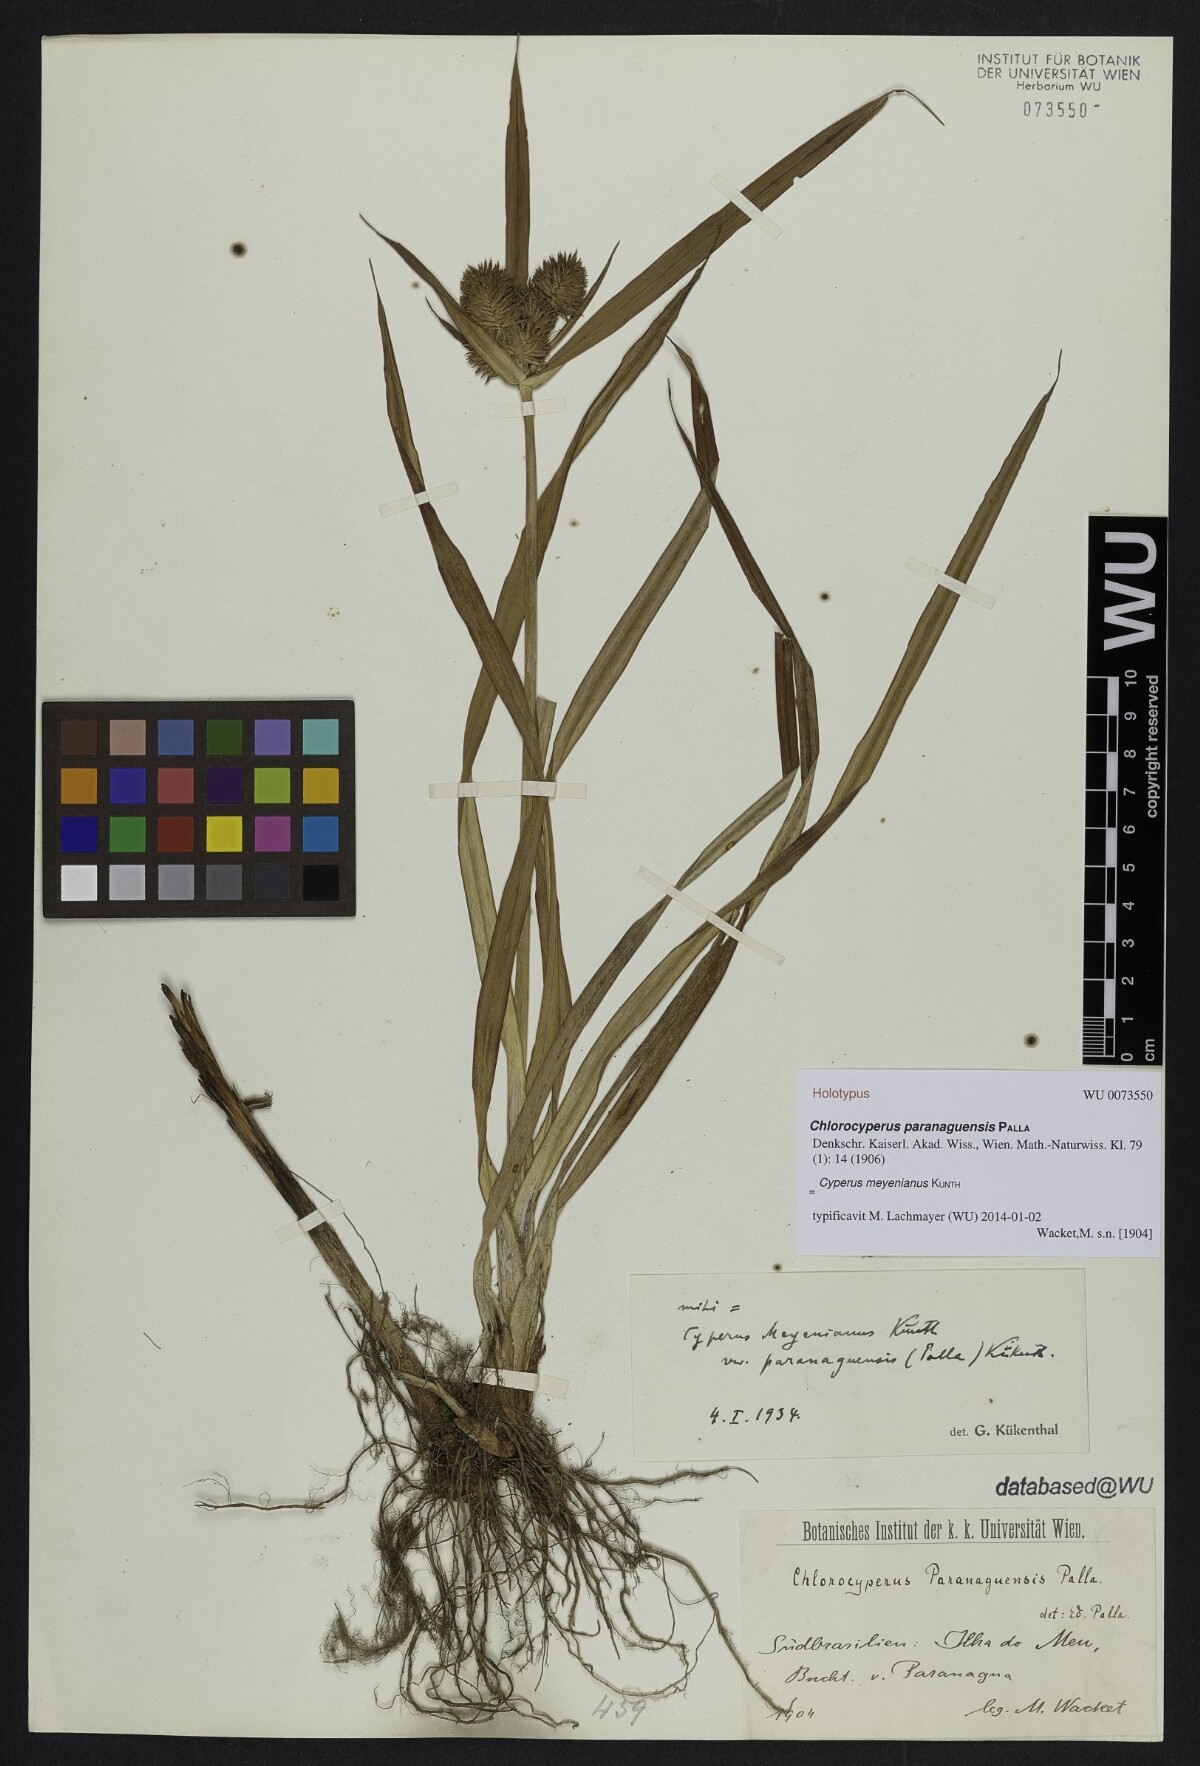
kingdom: Plantae
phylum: Tracheophyta
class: Liliopsida
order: Poales
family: Cyperaceae
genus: Cyperus
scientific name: Cyperus meyenianus
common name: Meyen's flatsedge
